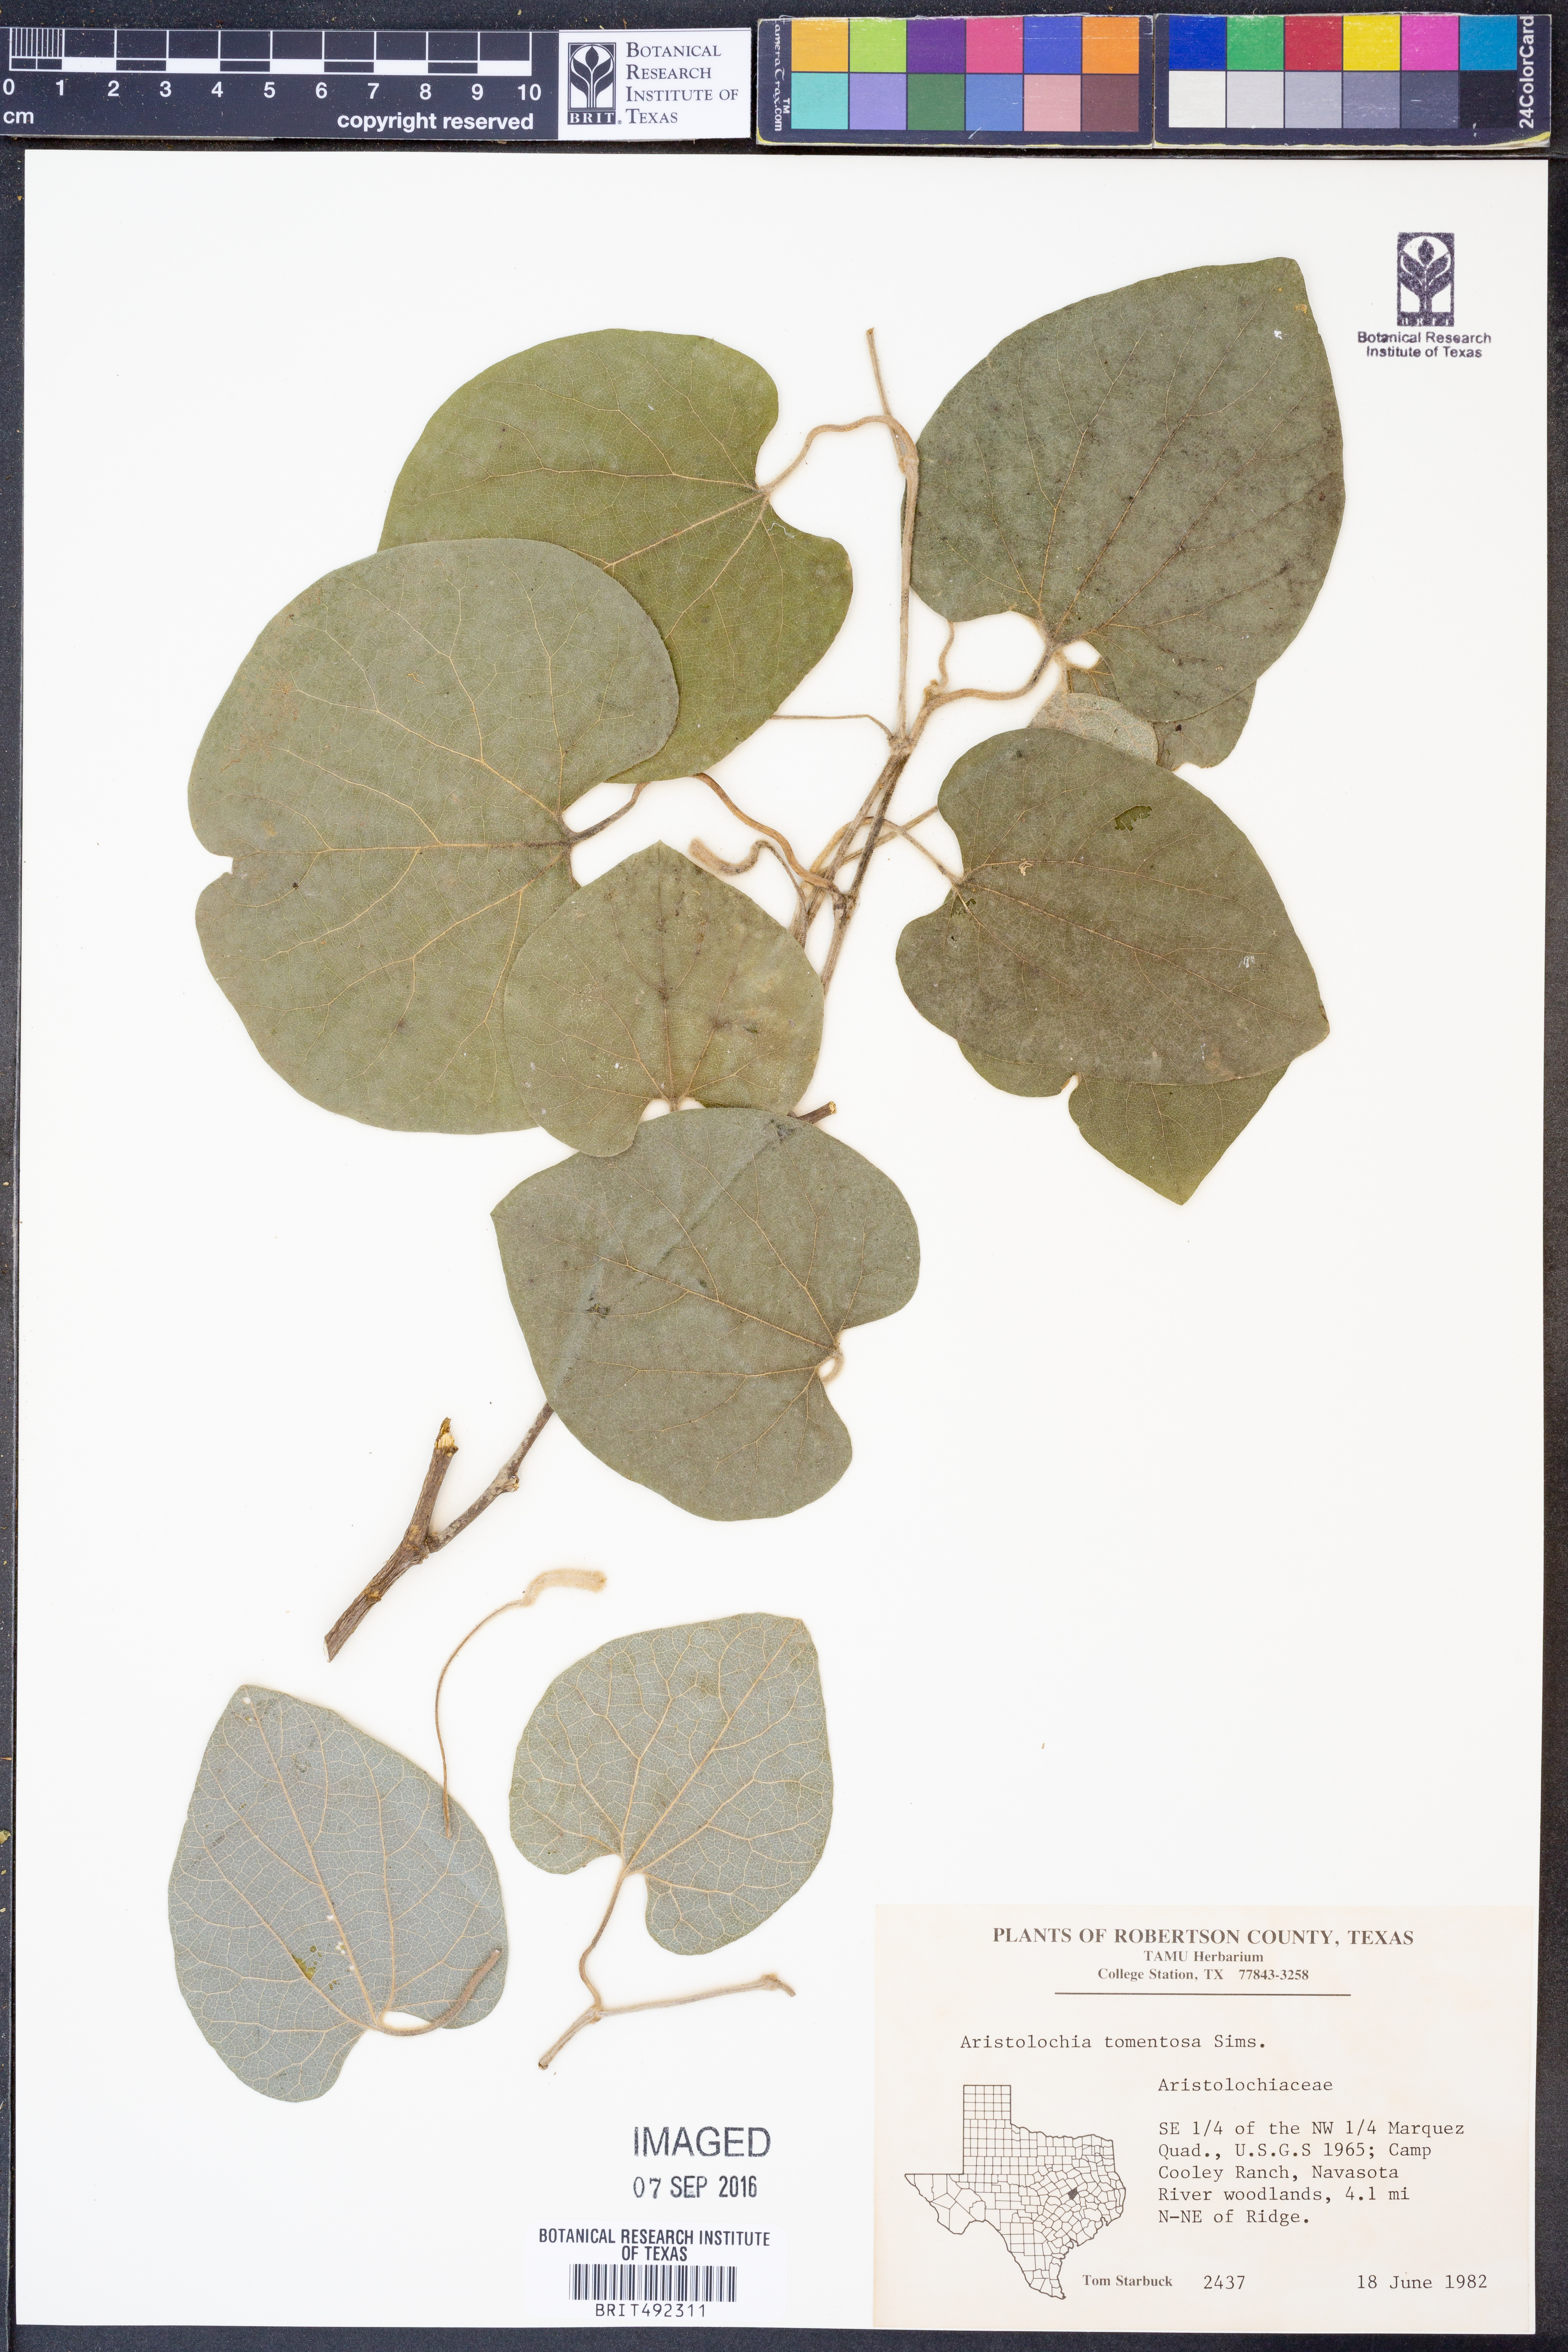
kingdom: Plantae
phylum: Tracheophyta
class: Magnoliopsida
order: Piperales
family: Aristolochiaceae
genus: Isotrema
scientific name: Isotrema tomentosum
